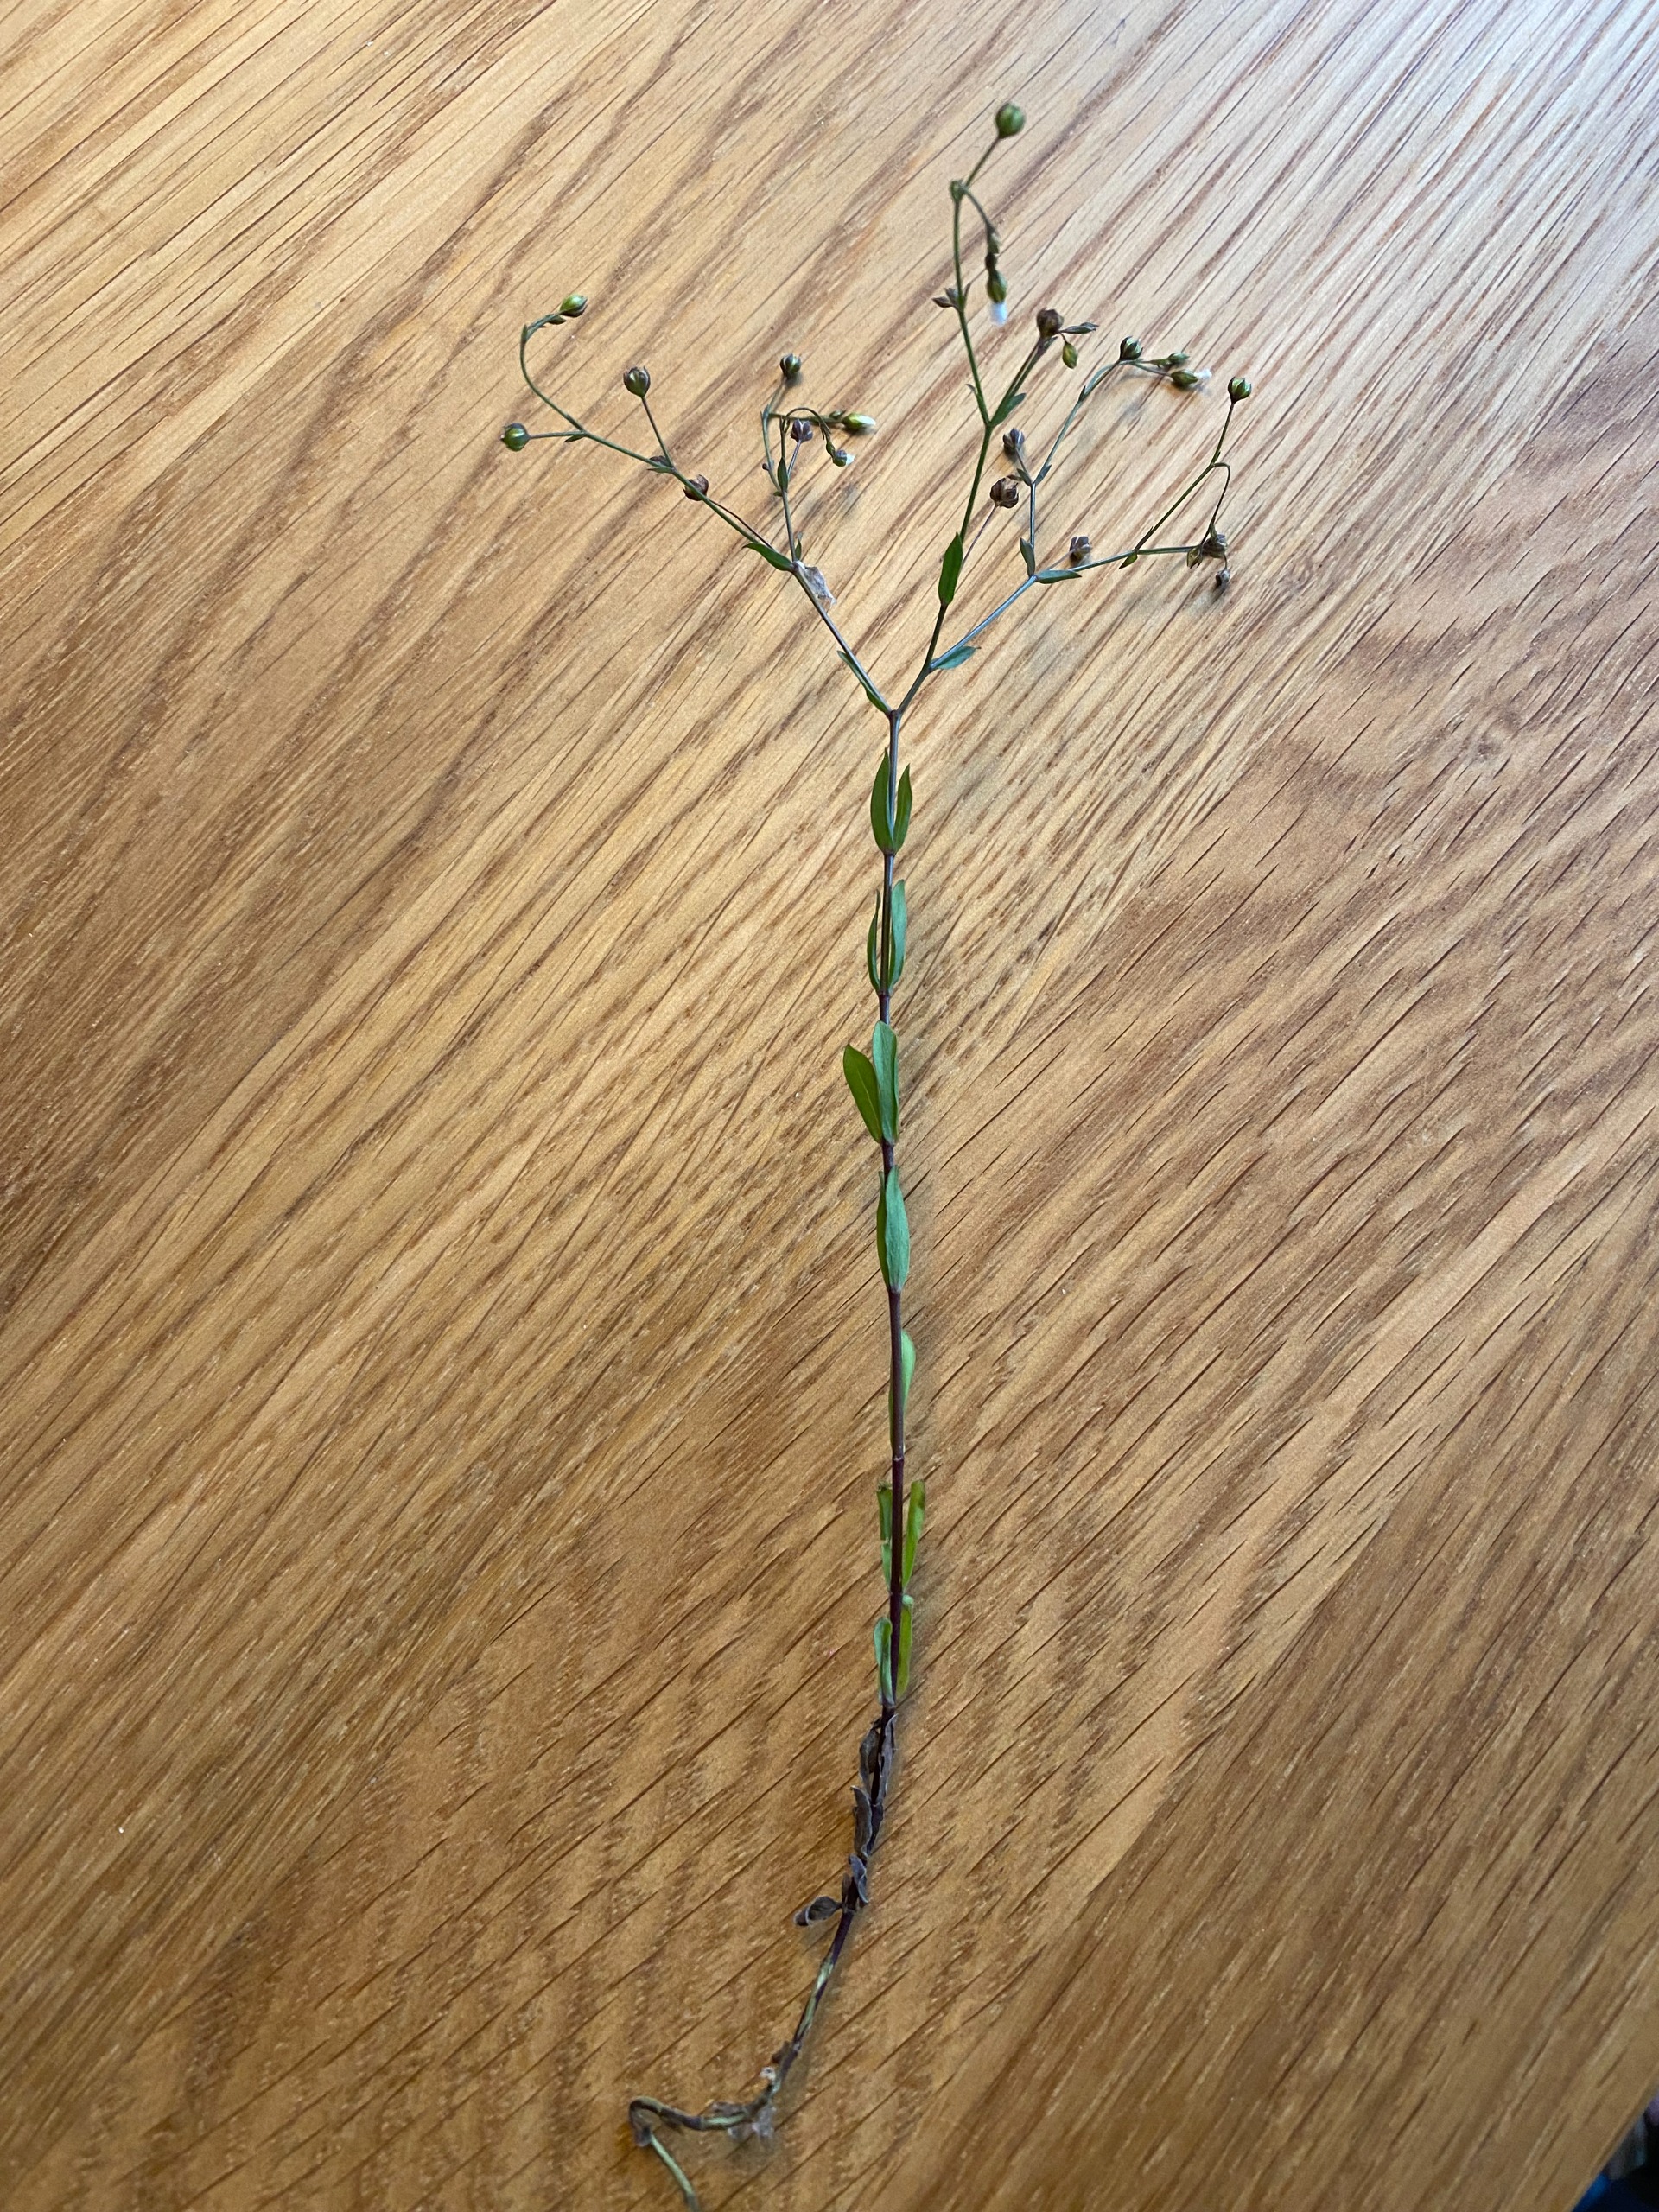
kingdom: Plantae
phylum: Tracheophyta
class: Magnoliopsida
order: Malpighiales
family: Linaceae
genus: Linum
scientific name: Linum catharticum
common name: Vild hør
